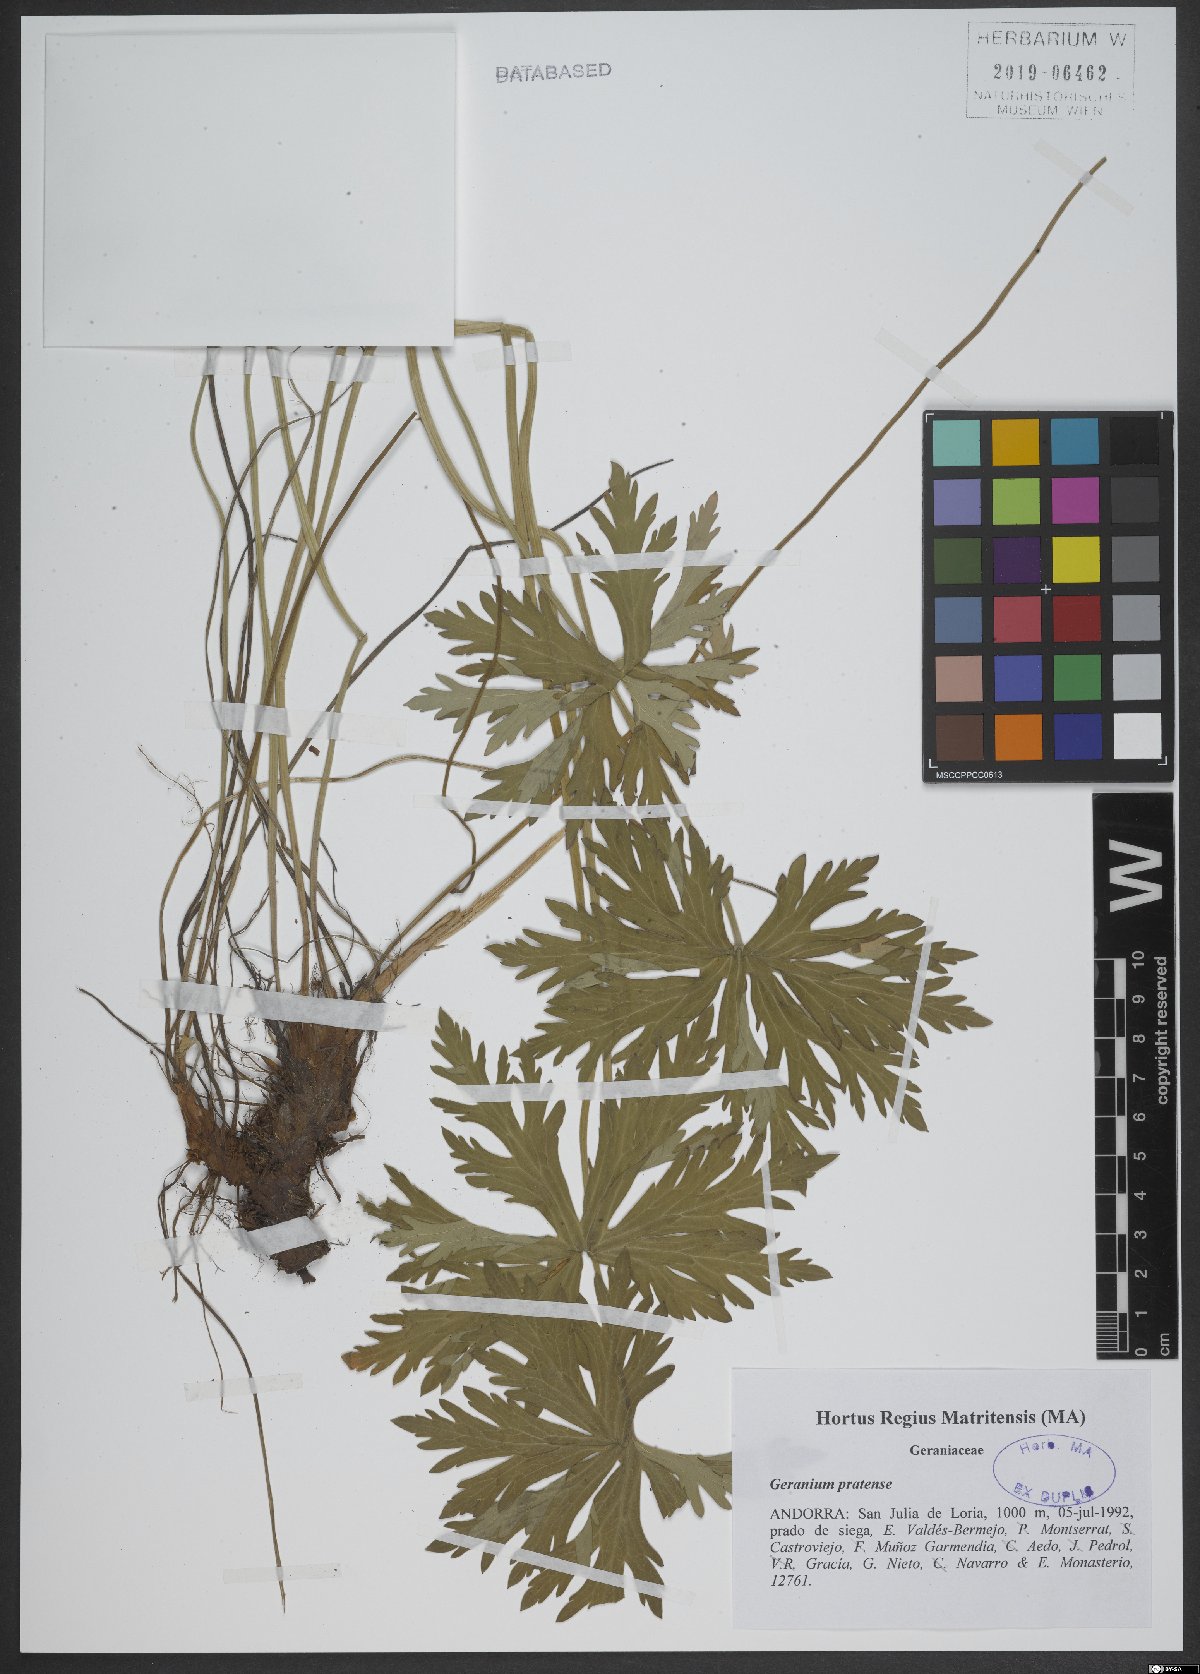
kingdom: Plantae
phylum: Tracheophyta
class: Magnoliopsida
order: Geraniales
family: Geraniaceae
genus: Geranium
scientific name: Geranium pratense
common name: Meadow crane's-bill
